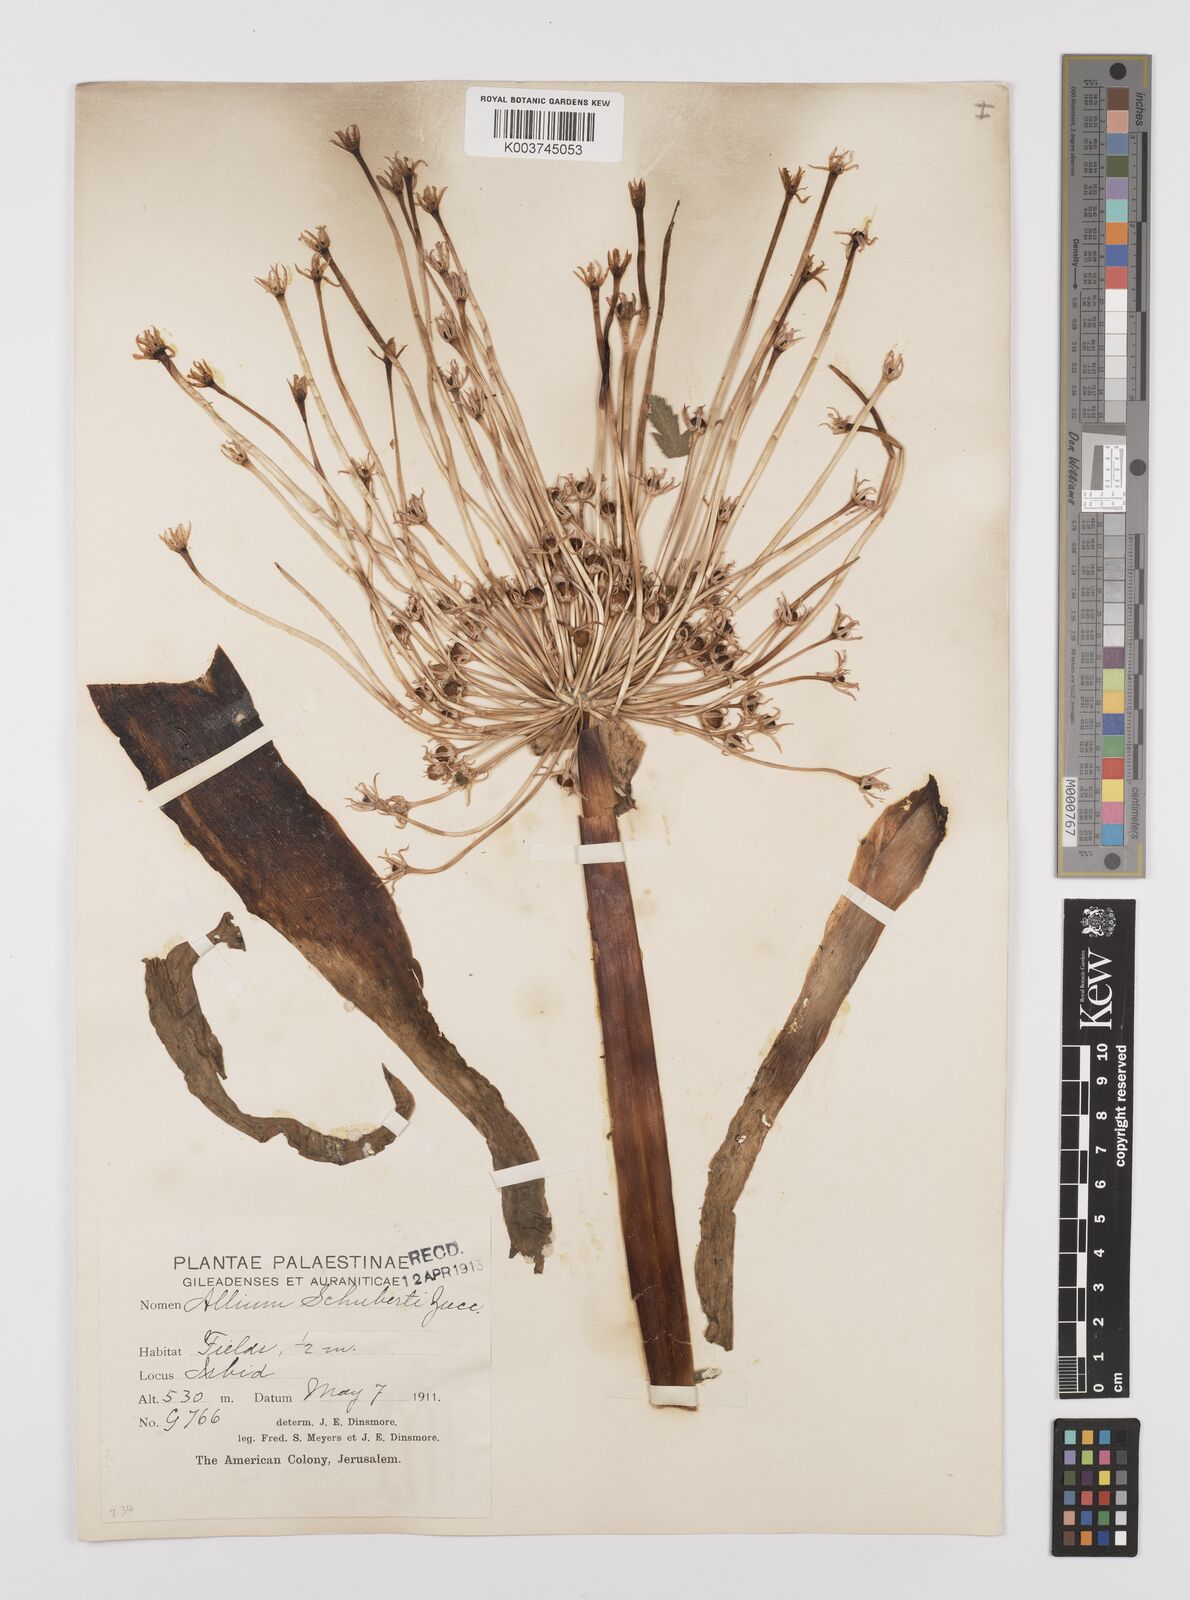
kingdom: Plantae
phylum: Tracheophyta
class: Liliopsida
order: Asparagales
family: Amaryllidaceae
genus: Allium
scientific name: Allium schubertii
